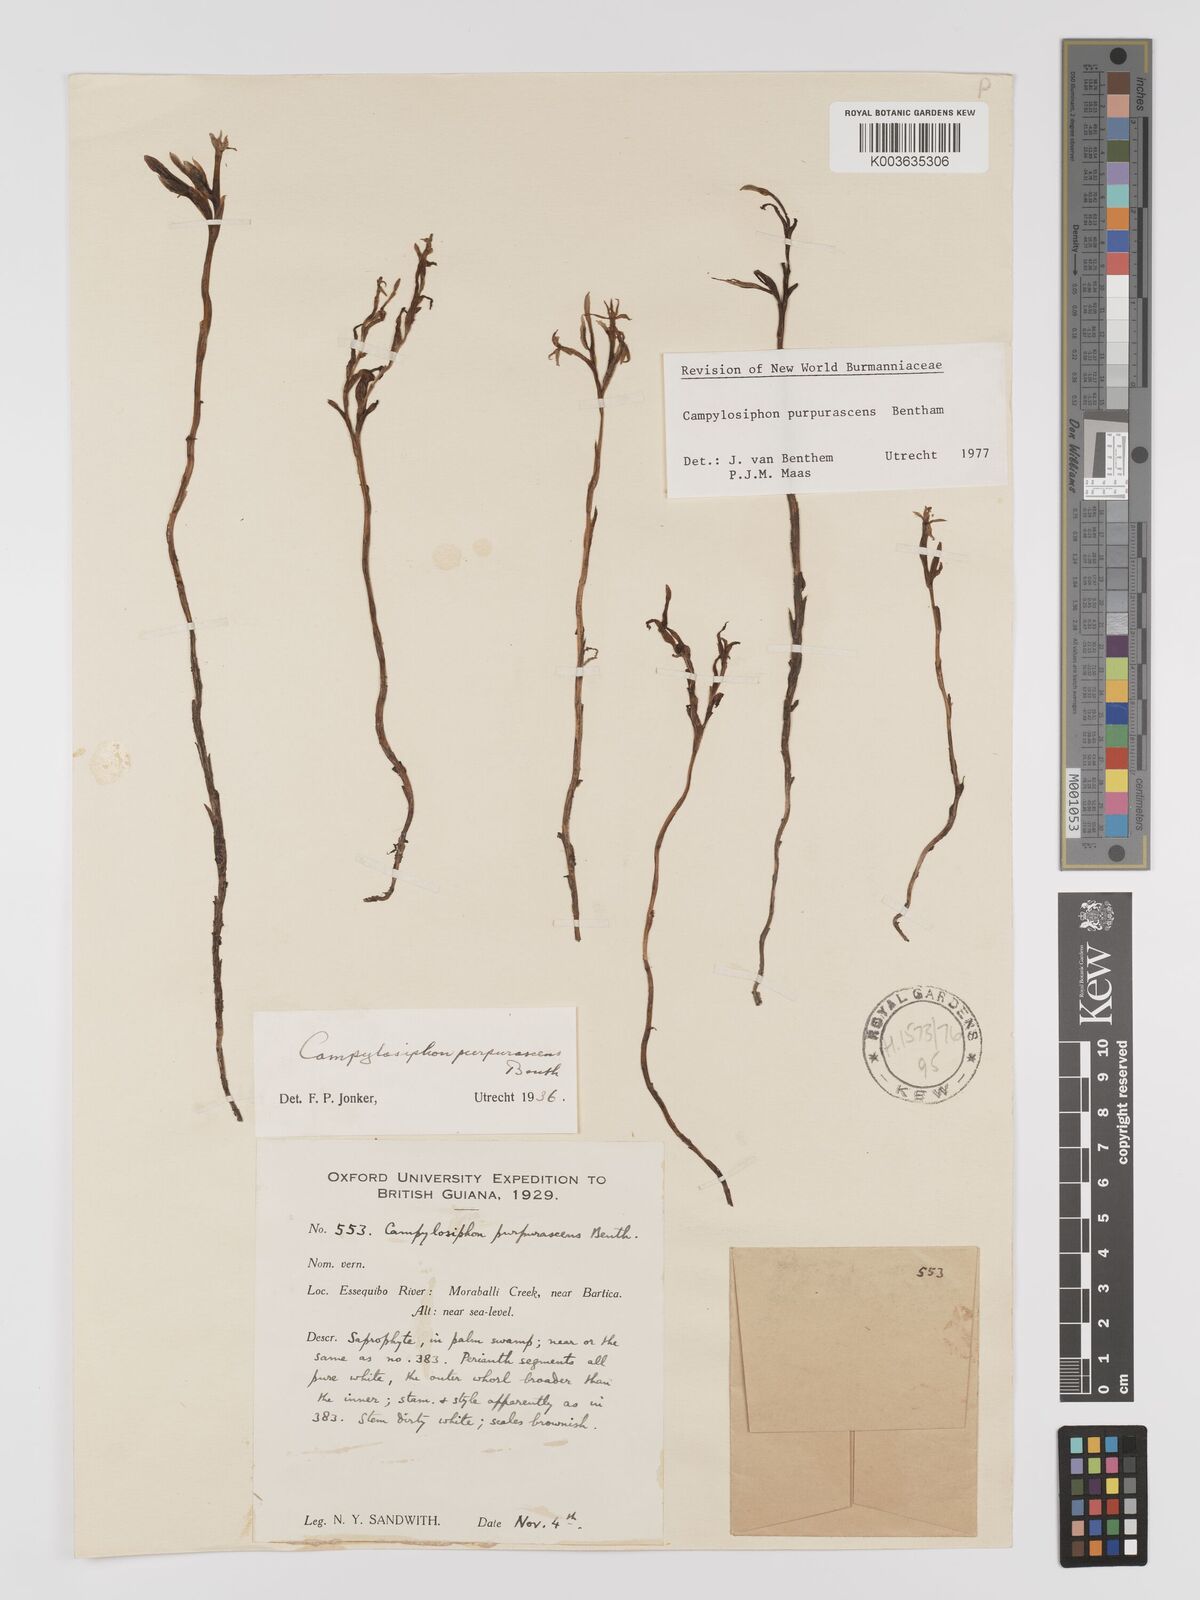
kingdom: Plantae
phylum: Tracheophyta
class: Liliopsida
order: Dioscoreales
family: Burmanniaceae
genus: Campylosiphon
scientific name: Campylosiphon purpurascens
